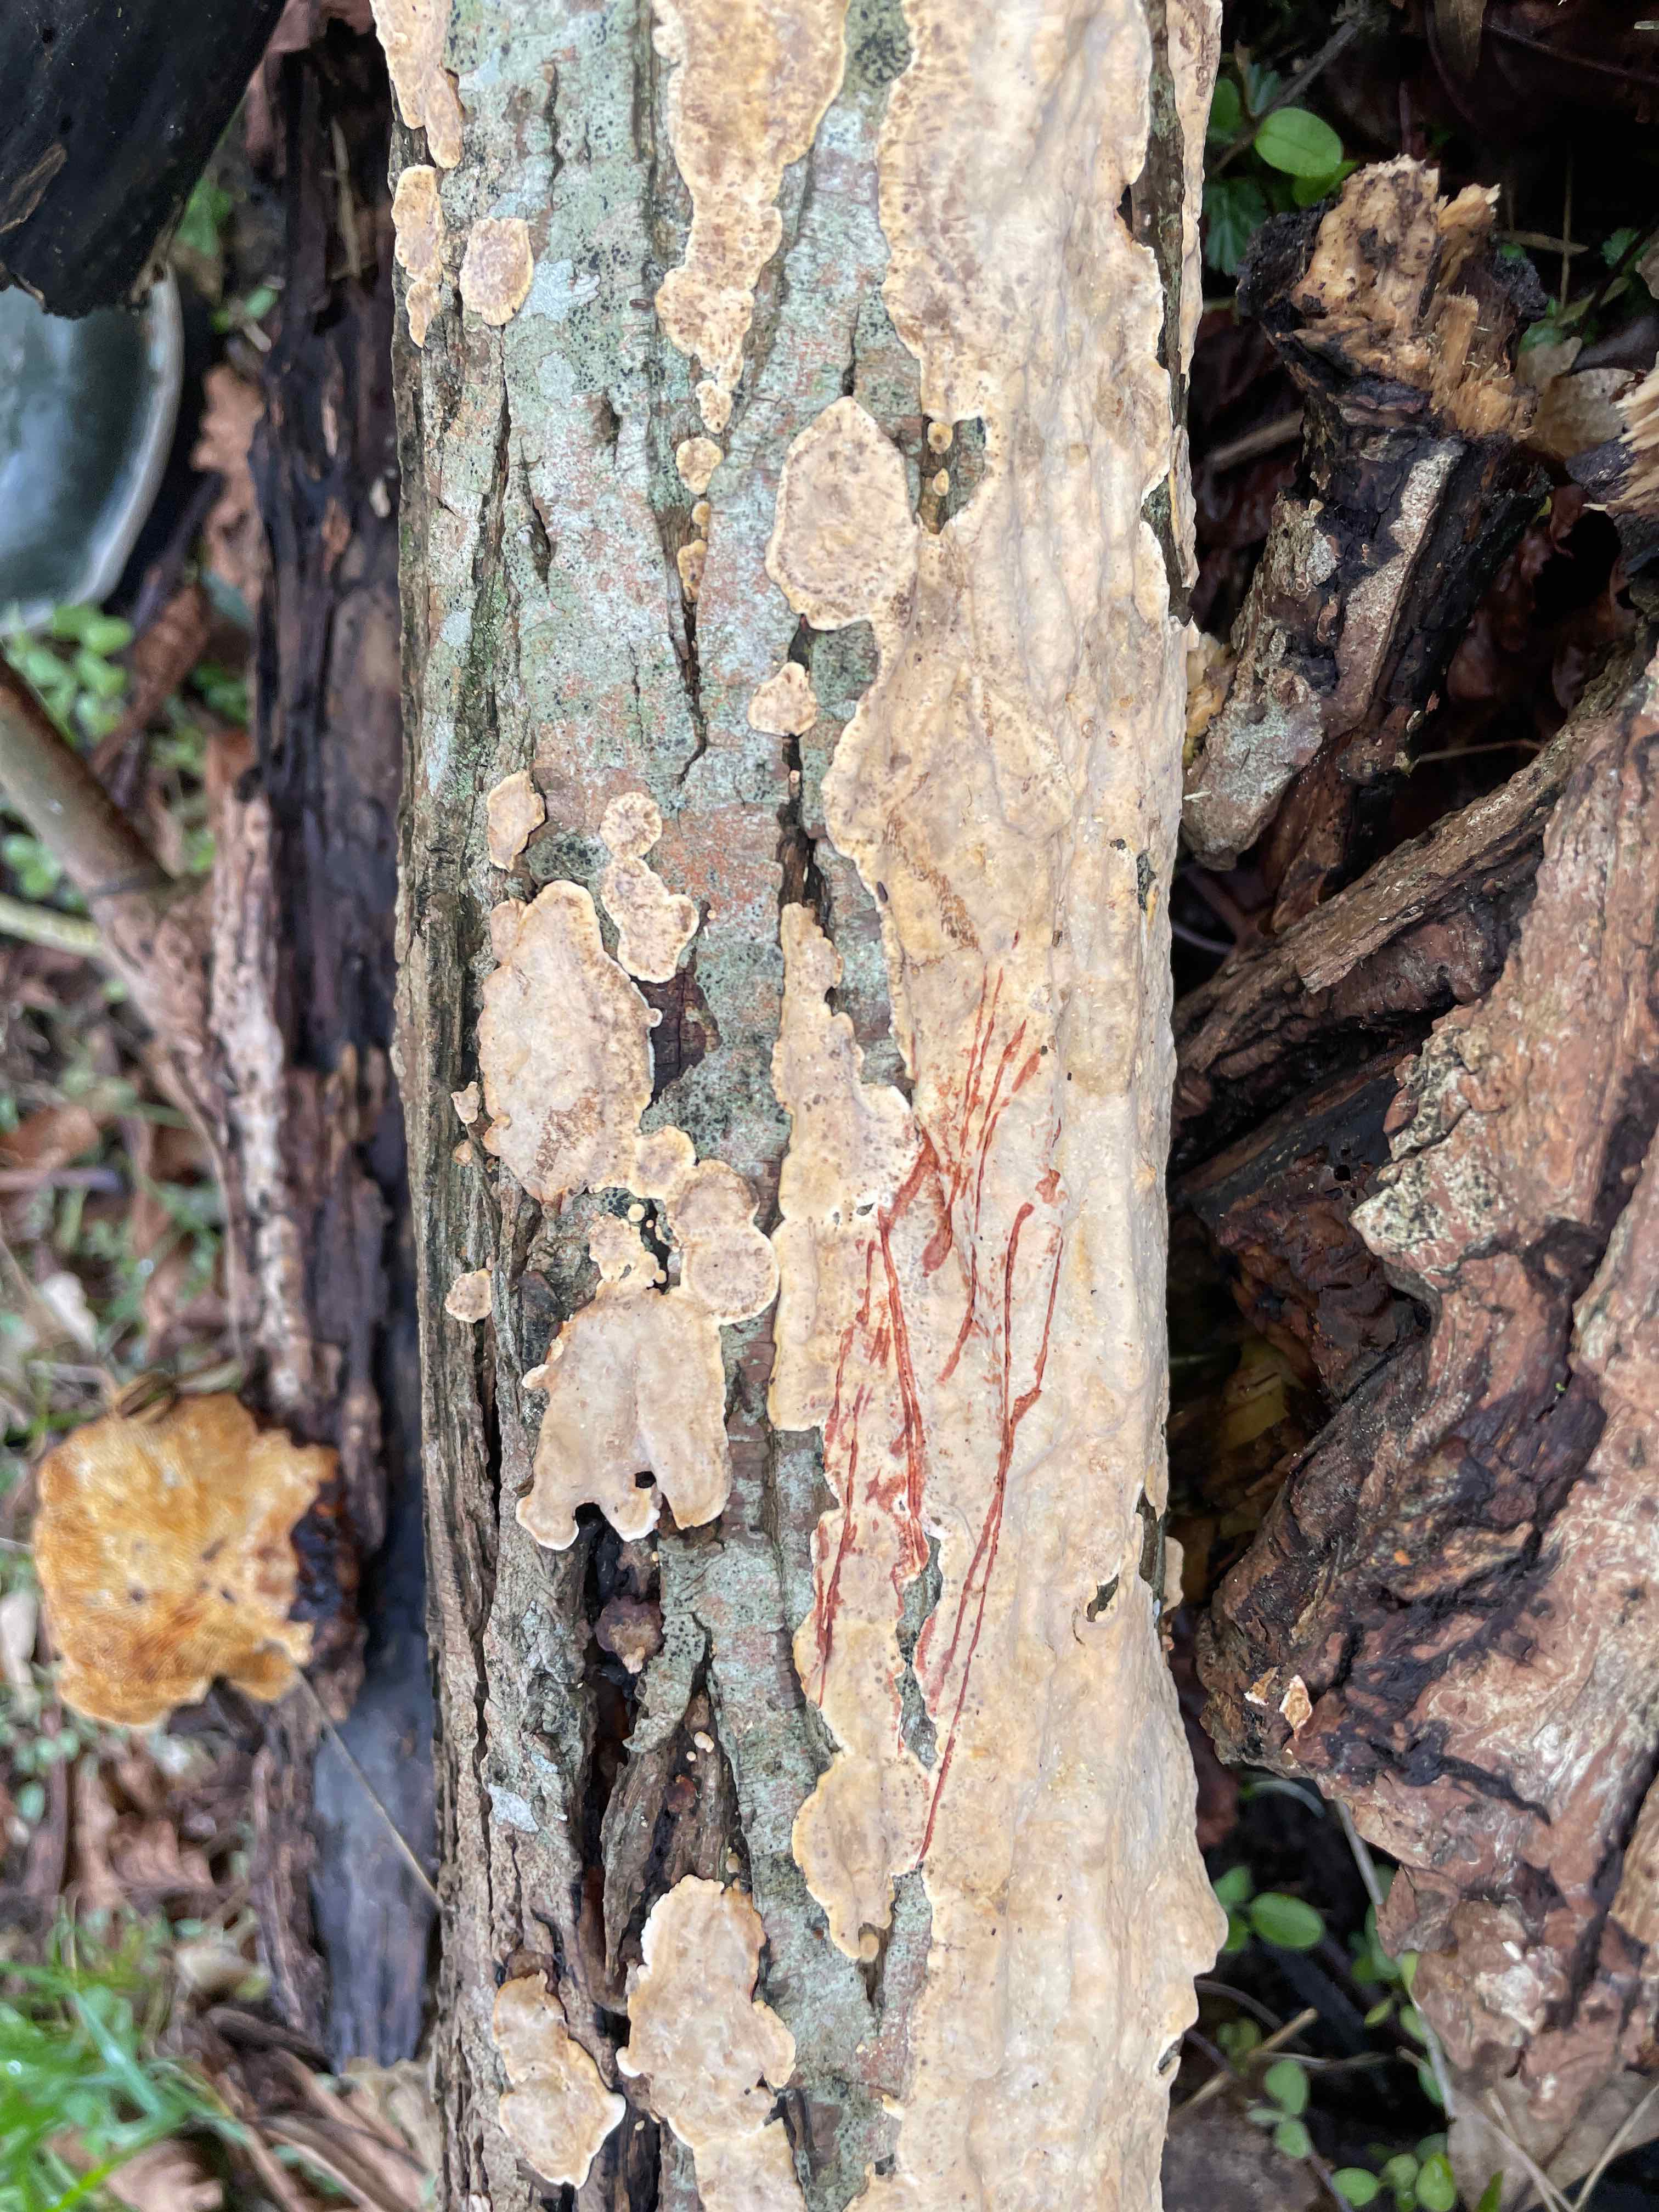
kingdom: Fungi
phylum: Basidiomycota
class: Agaricomycetes
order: Russulales
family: Stereaceae
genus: Stereum
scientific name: Stereum rugosum
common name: rynket lædersvamp
